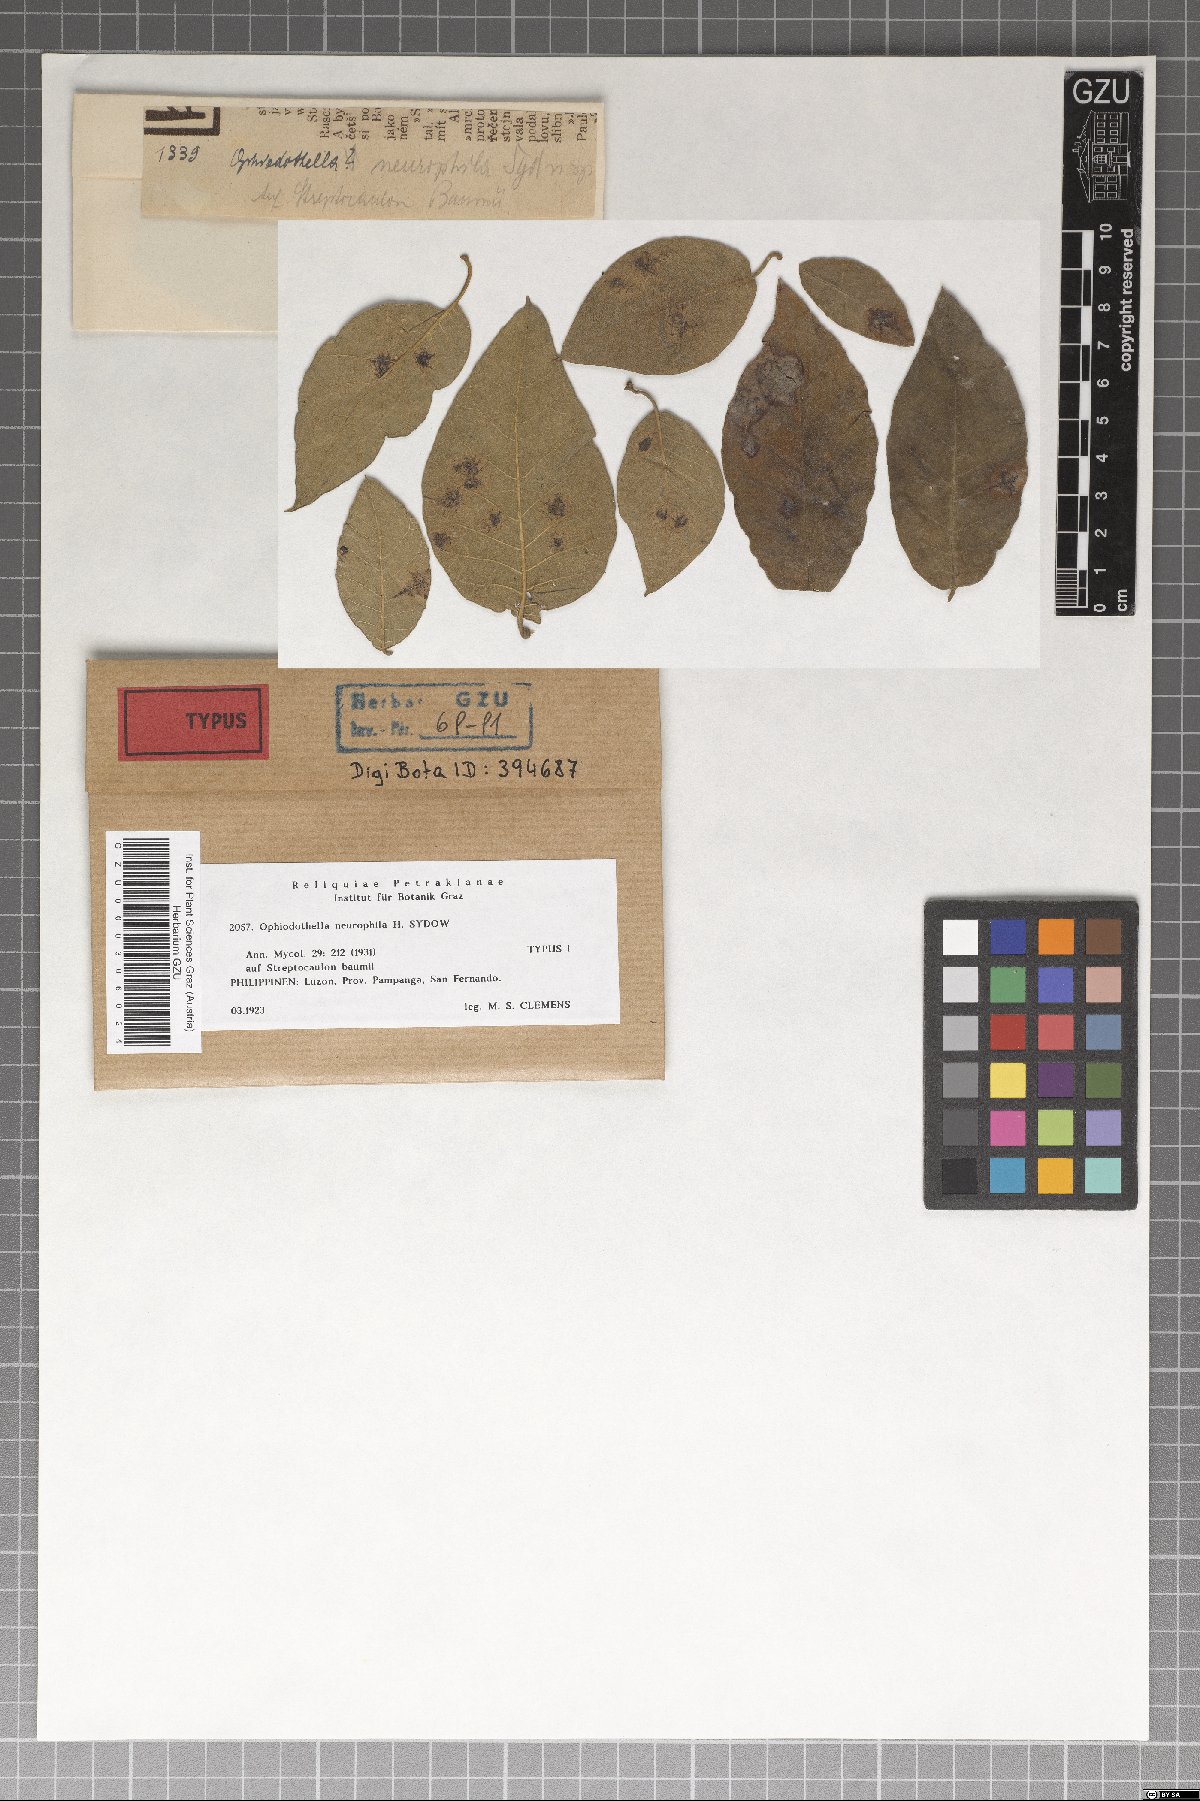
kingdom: Fungi
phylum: Ascomycota
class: Sordariomycetes
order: Phyllachorales
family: Phyllachoraceae
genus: Ophiodothella
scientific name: Ophiodothella neurophila
